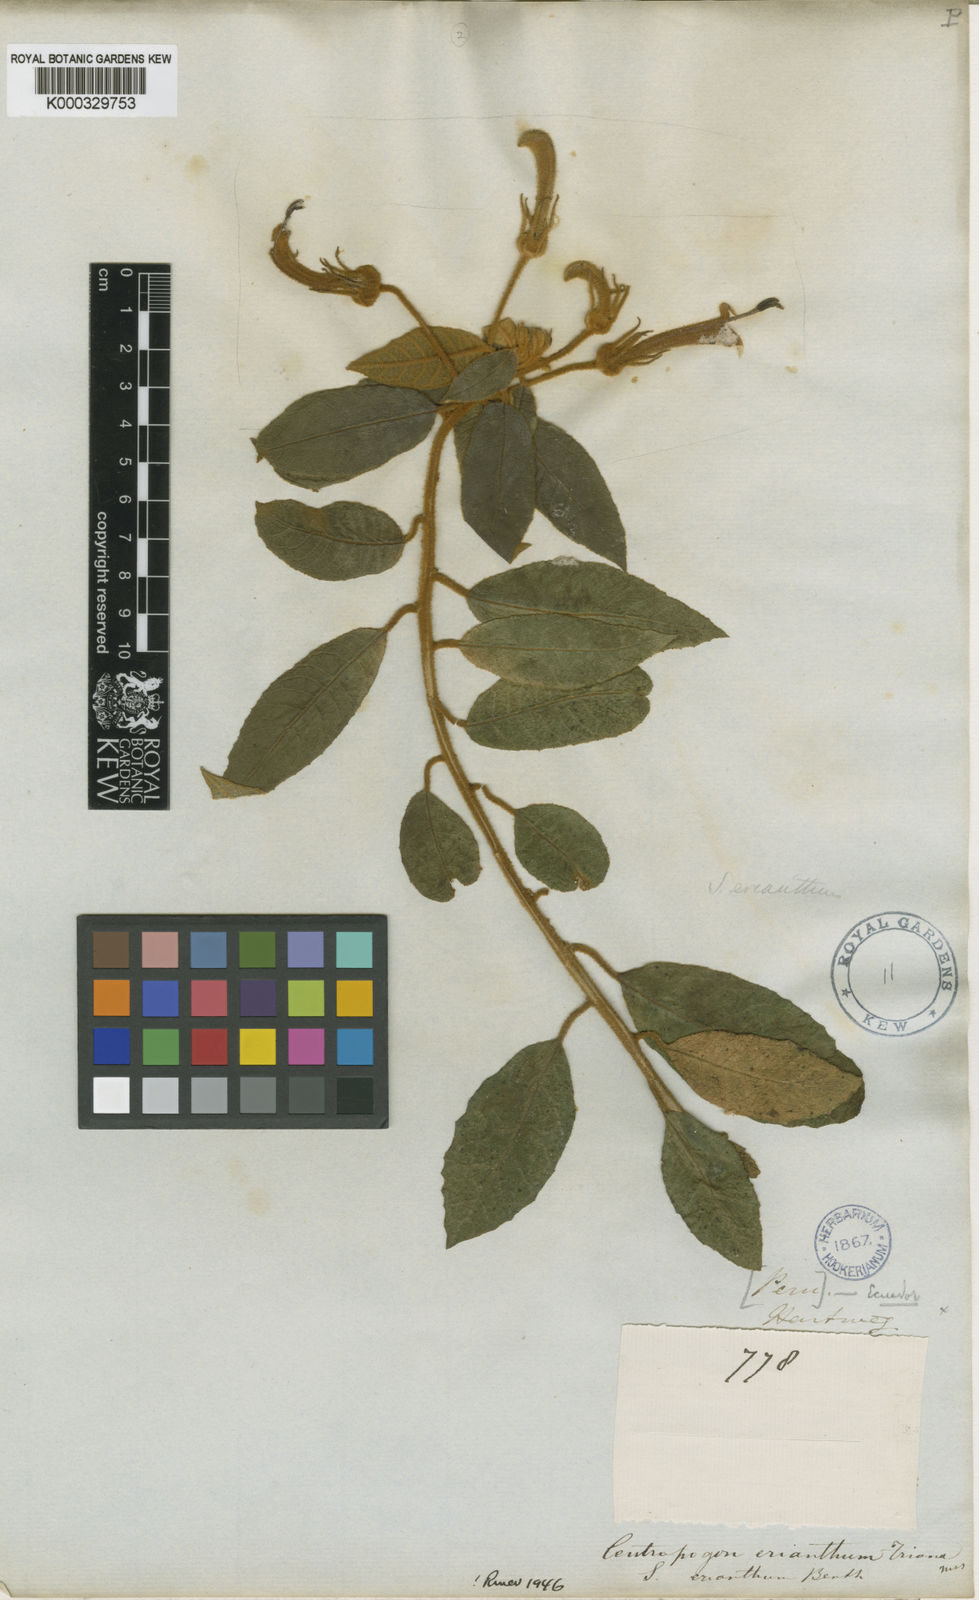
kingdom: Plantae
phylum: Tracheophyta
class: Magnoliopsida
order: Asterales
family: Campanulaceae
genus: Centropogon
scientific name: Centropogon erianthus
